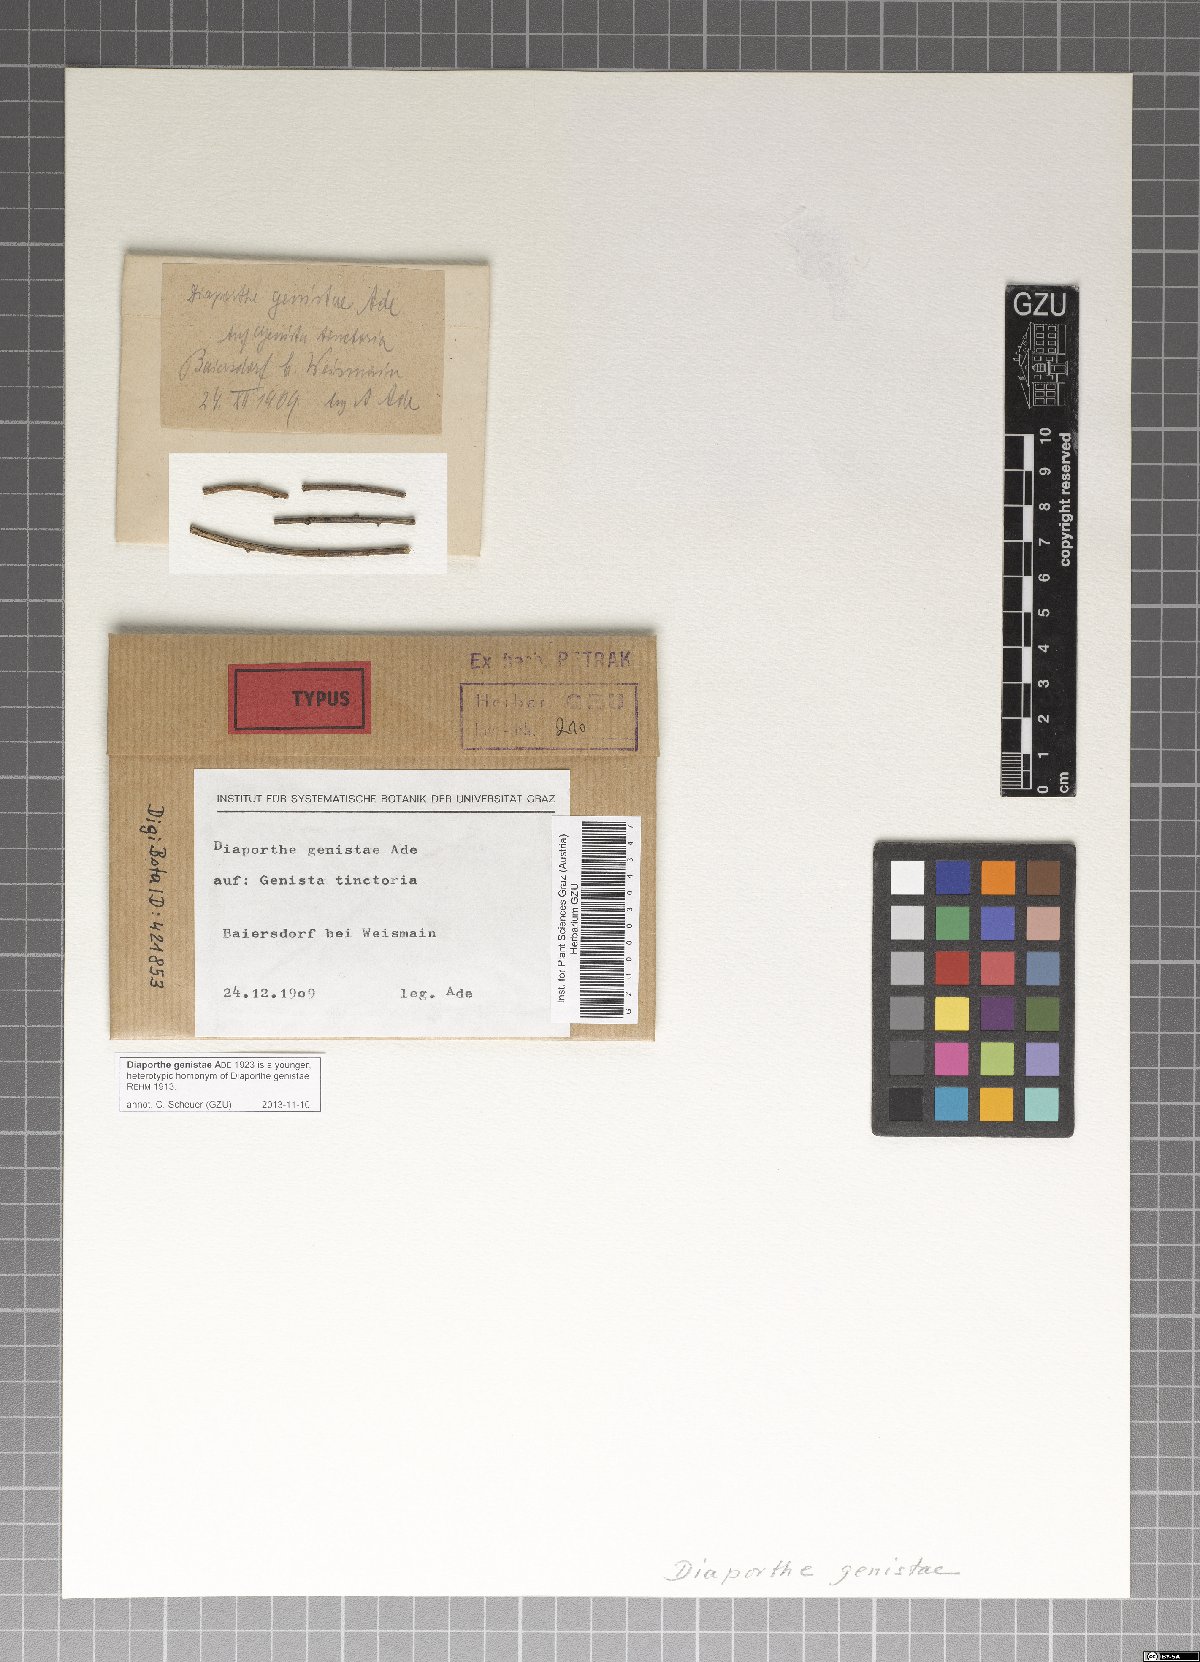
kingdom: Fungi
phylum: Ascomycota
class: Sordariomycetes
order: Diaporthales
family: Diaporthaceae
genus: Diaporthe
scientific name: Diaporthe genistae
